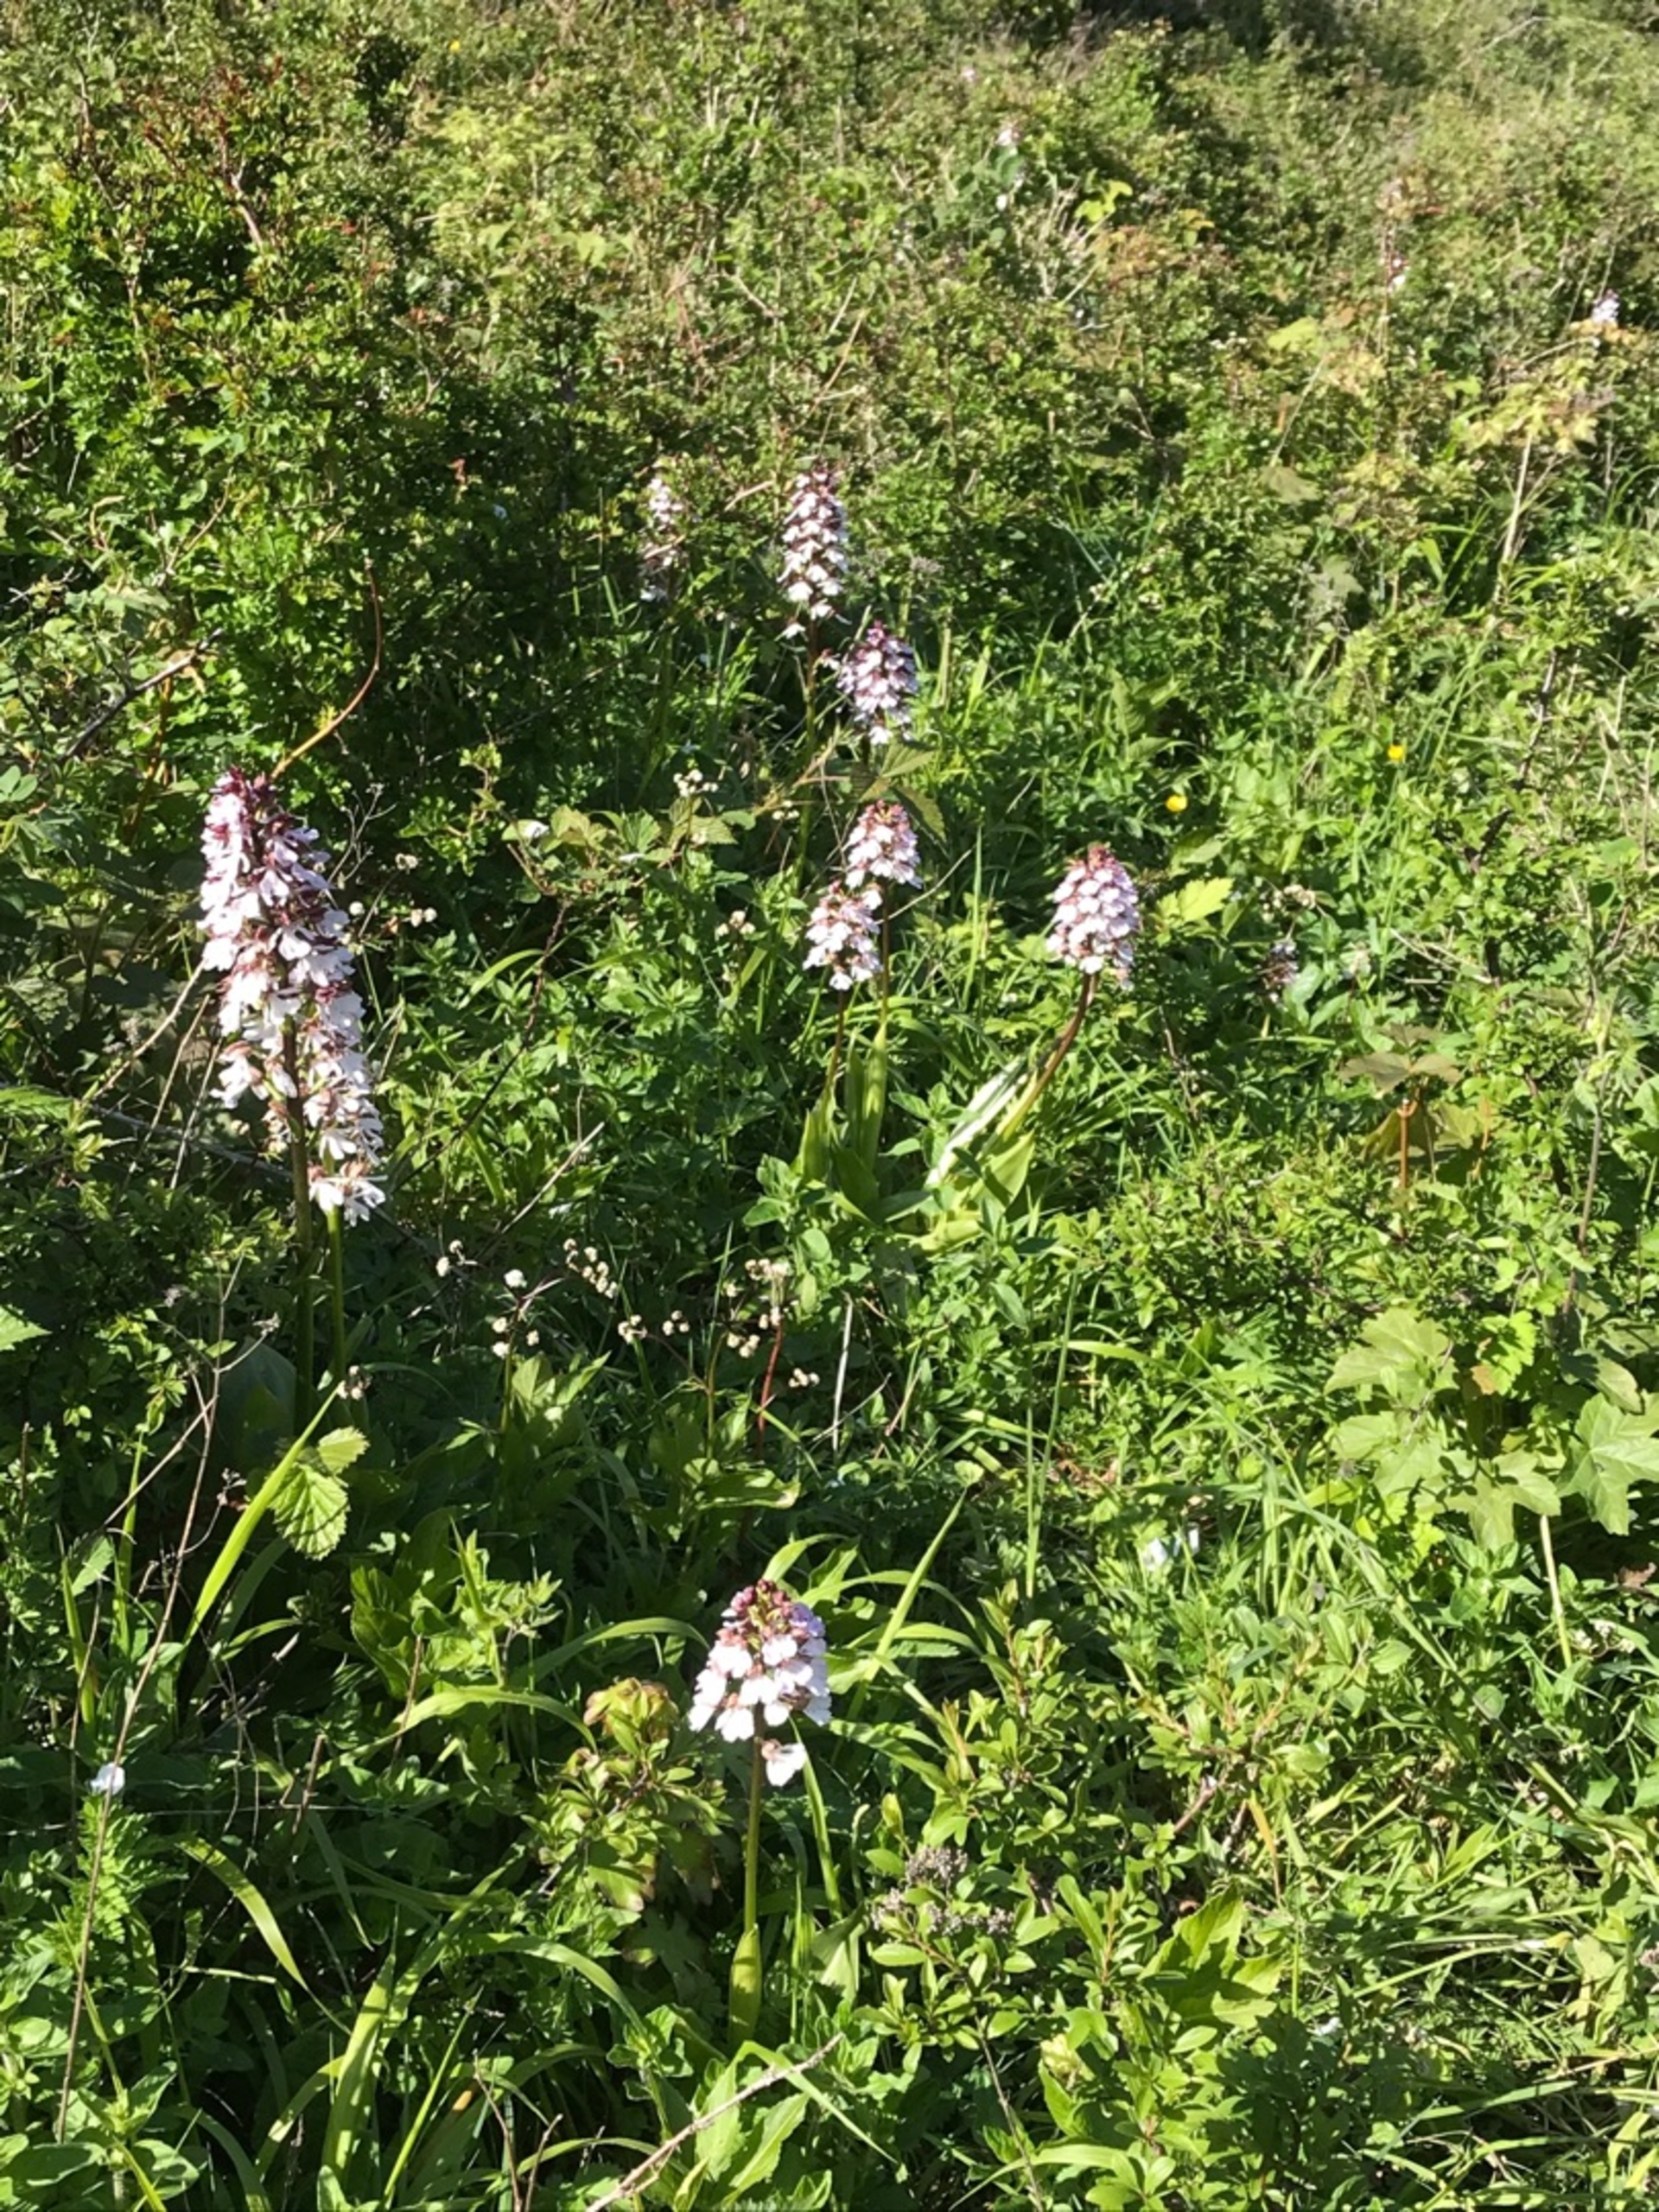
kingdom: Plantae
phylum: Tracheophyta
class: Liliopsida
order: Asparagales
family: Orchidaceae
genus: Orchis
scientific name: Orchis purpurea
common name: Stor gøgeurt
